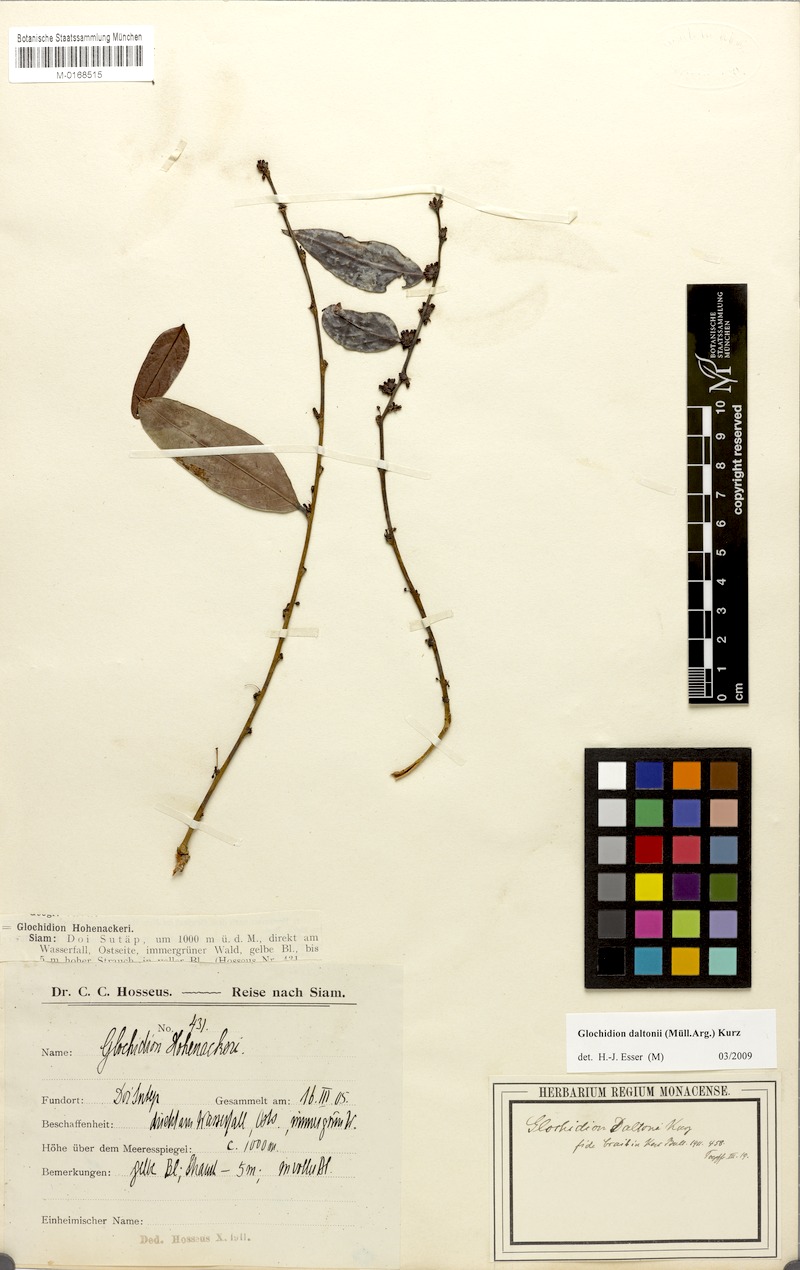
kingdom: Plantae
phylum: Tracheophyta
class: Magnoliopsida
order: Malpighiales
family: Phyllanthaceae
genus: Glochidion
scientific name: Glochidion daltonii
